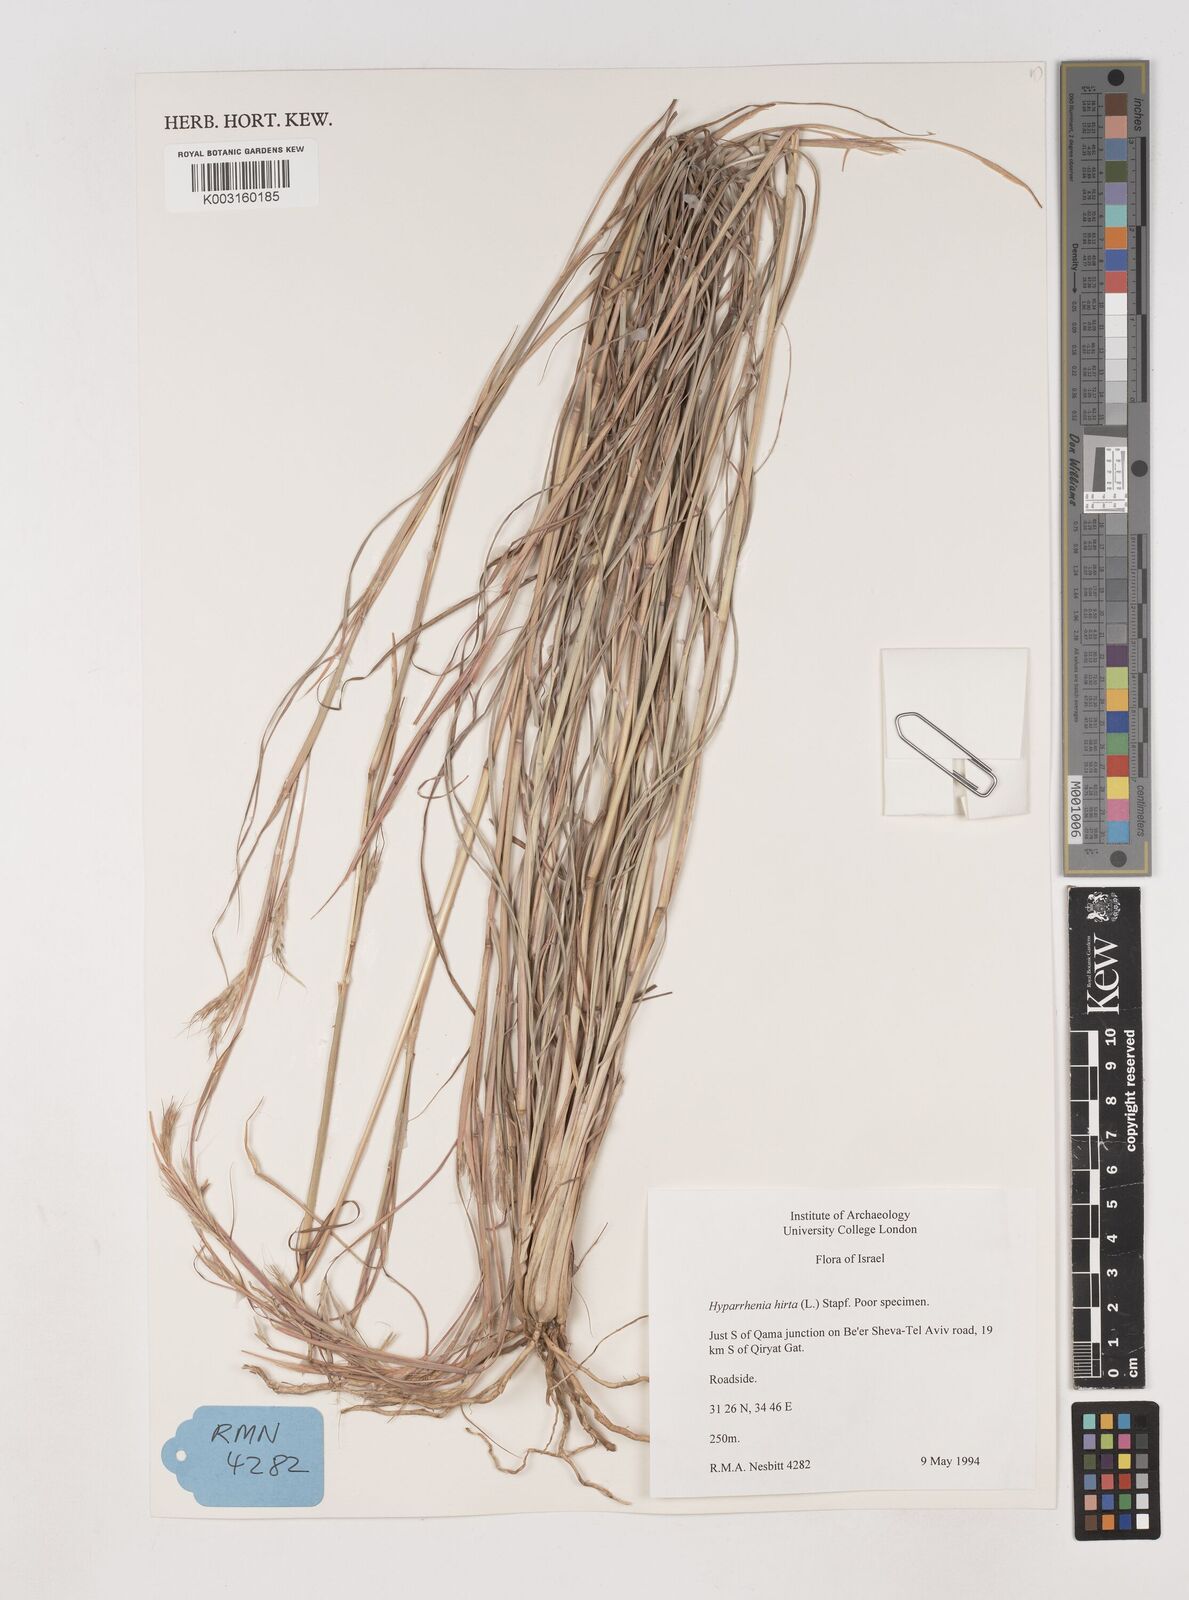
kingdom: Plantae
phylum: Tracheophyta
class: Liliopsida
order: Poales
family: Poaceae
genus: Hyparrhenia
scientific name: Hyparrhenia hirta
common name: Thatching grass
